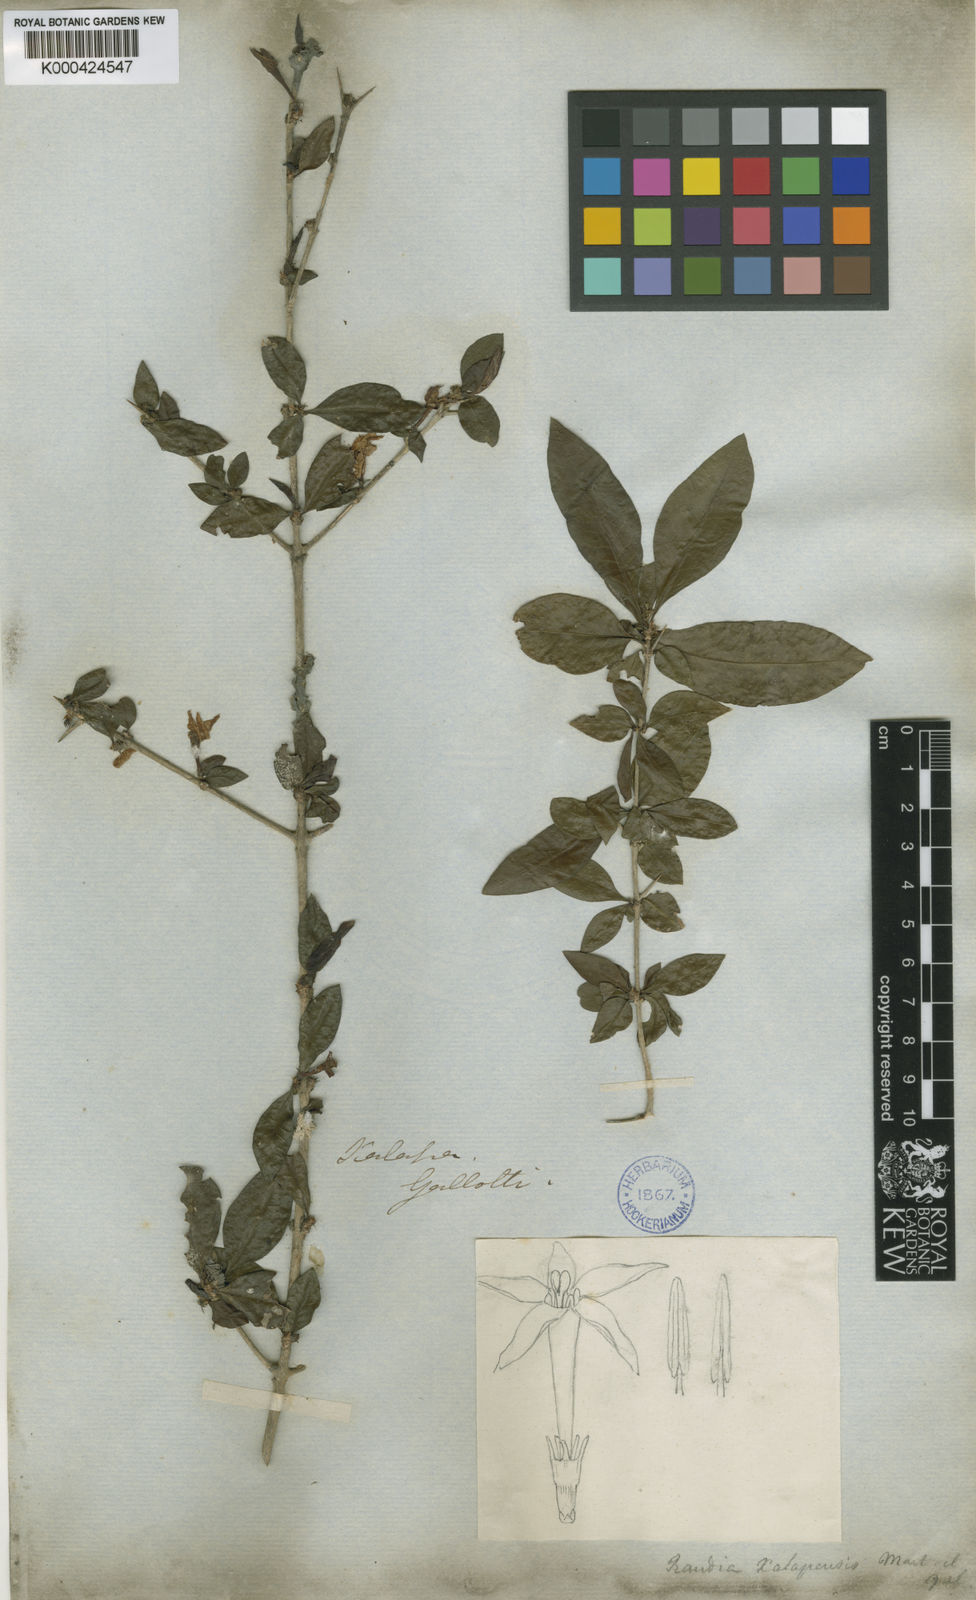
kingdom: Plantae
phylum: Tracheophyta
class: Magnoliopsida
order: Gentianales
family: Rubiaceae
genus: Randia
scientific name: Randia xalapensis
